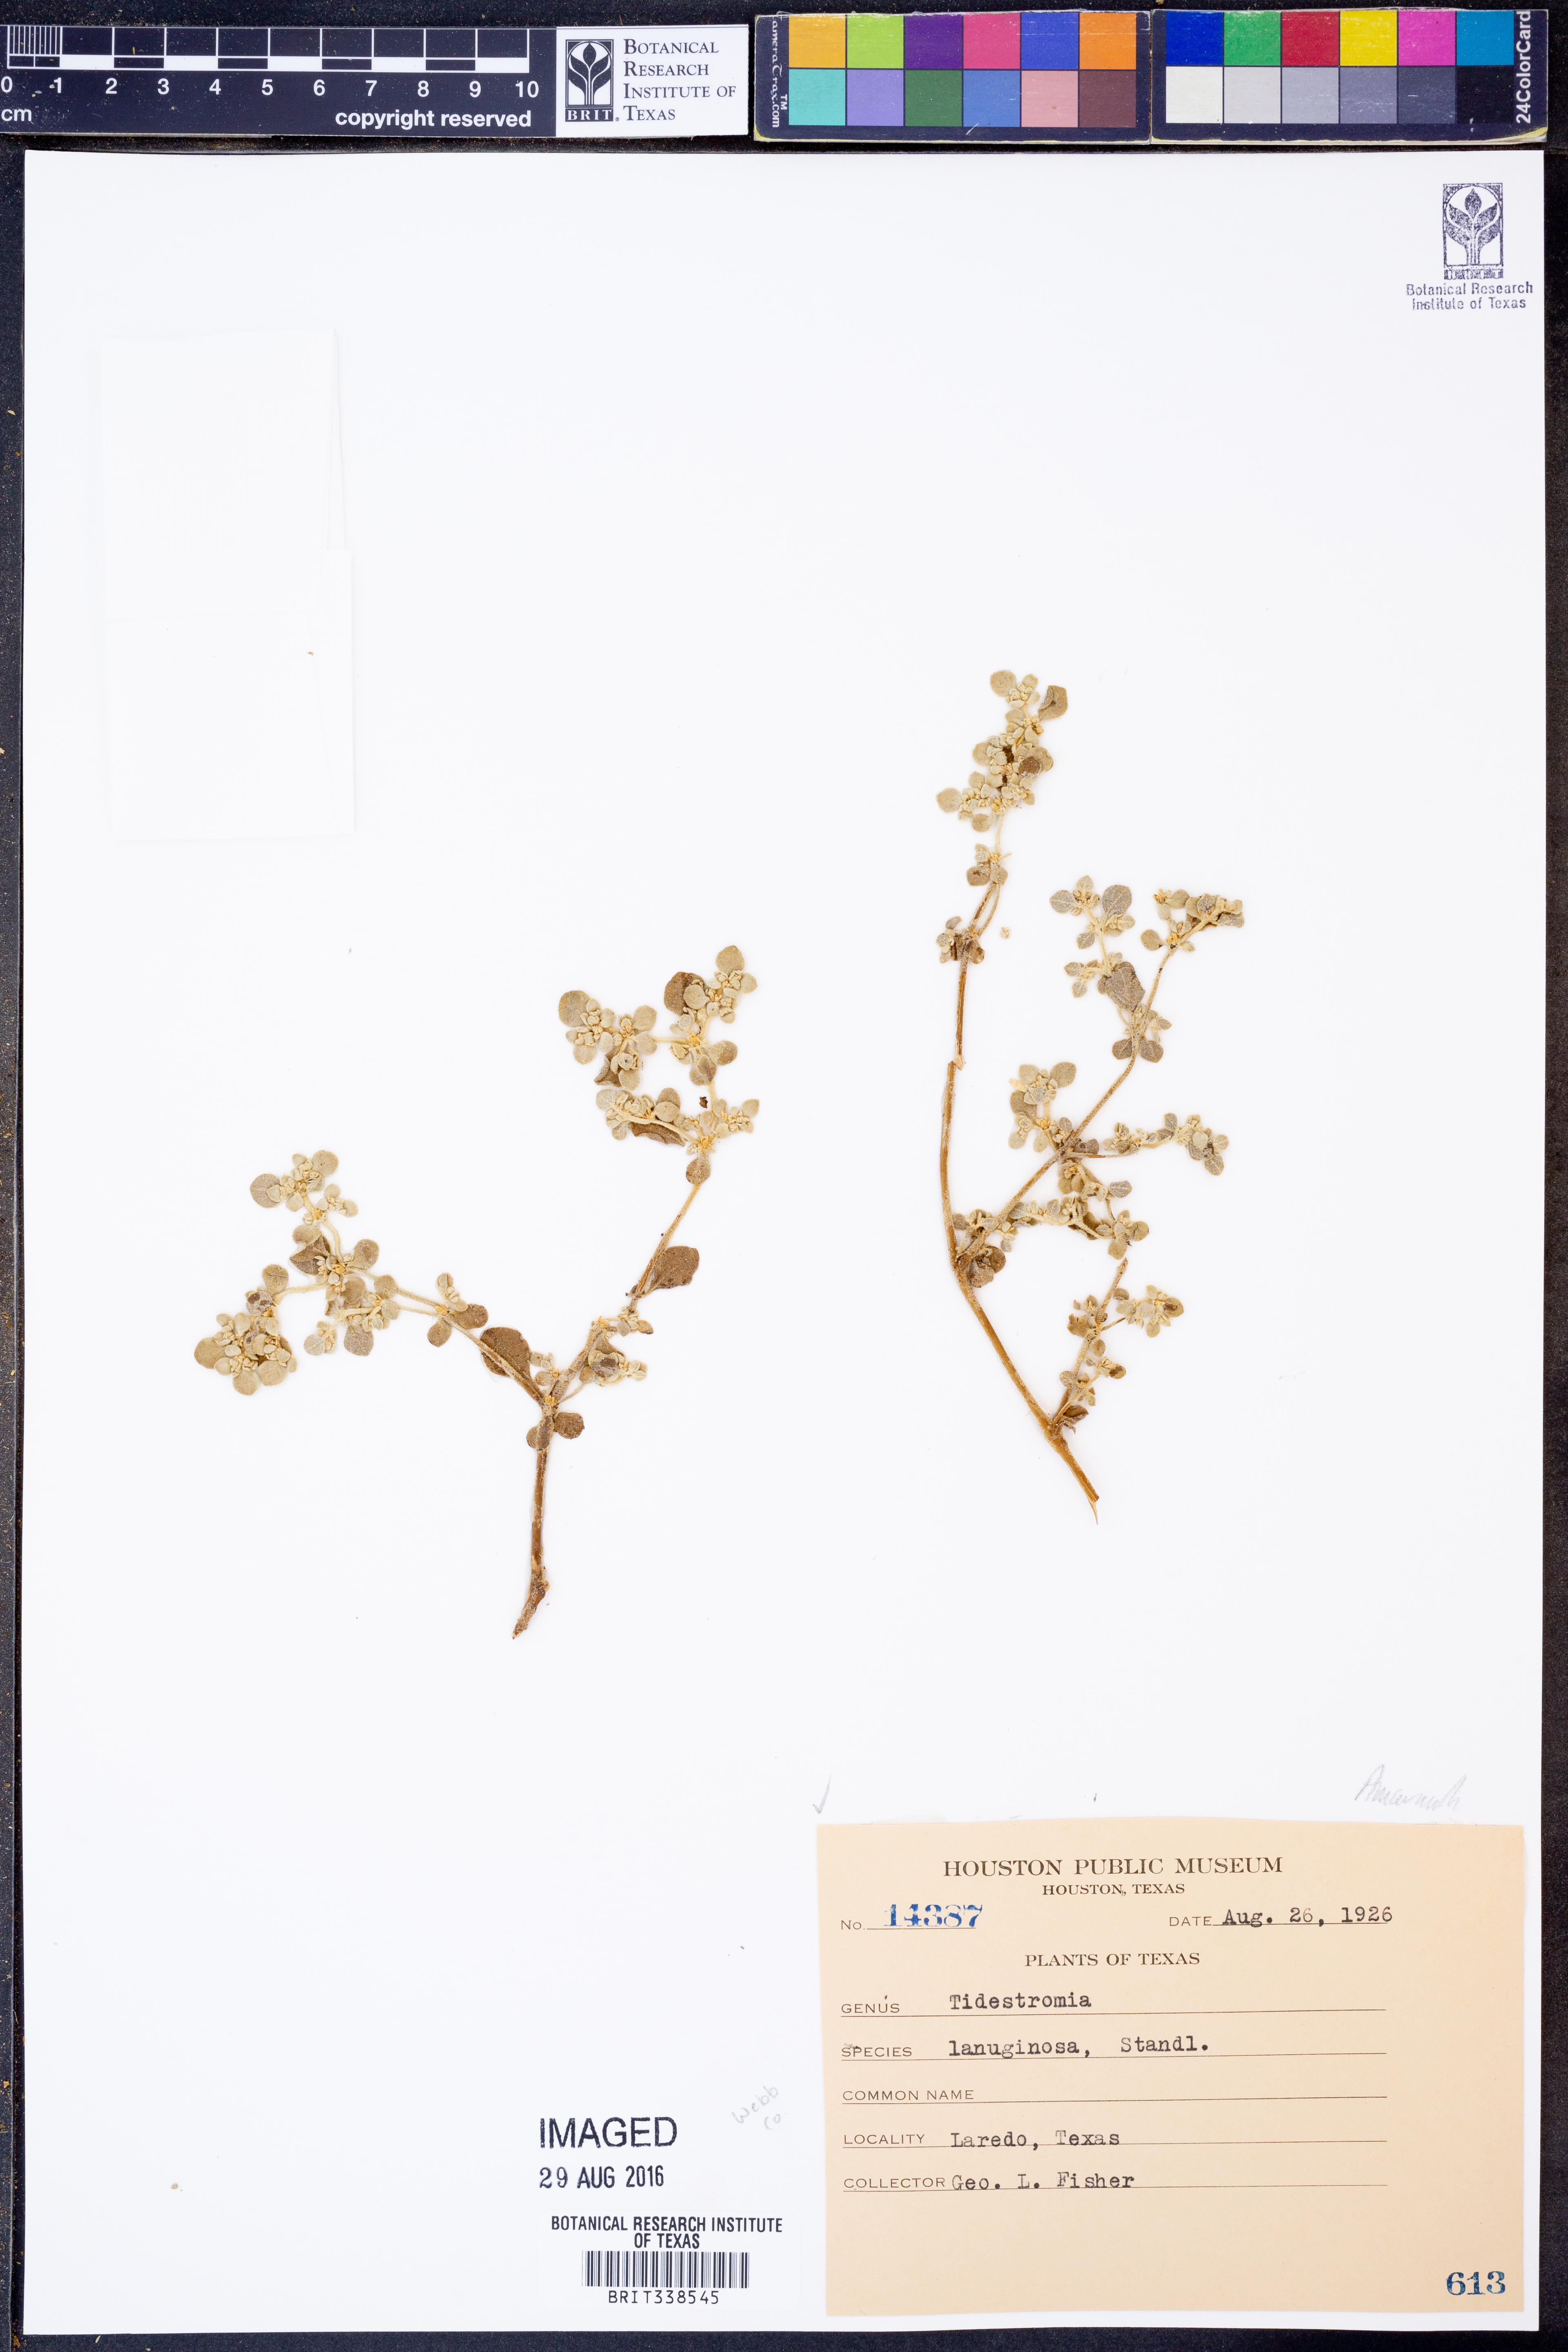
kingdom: Plantae
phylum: Tracheophyta
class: Magnoliopsida
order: Caryophyllales
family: Amaranthaceae
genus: Tidestromia
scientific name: Tidestromia lanuginosa
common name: Woolly tidestromia
